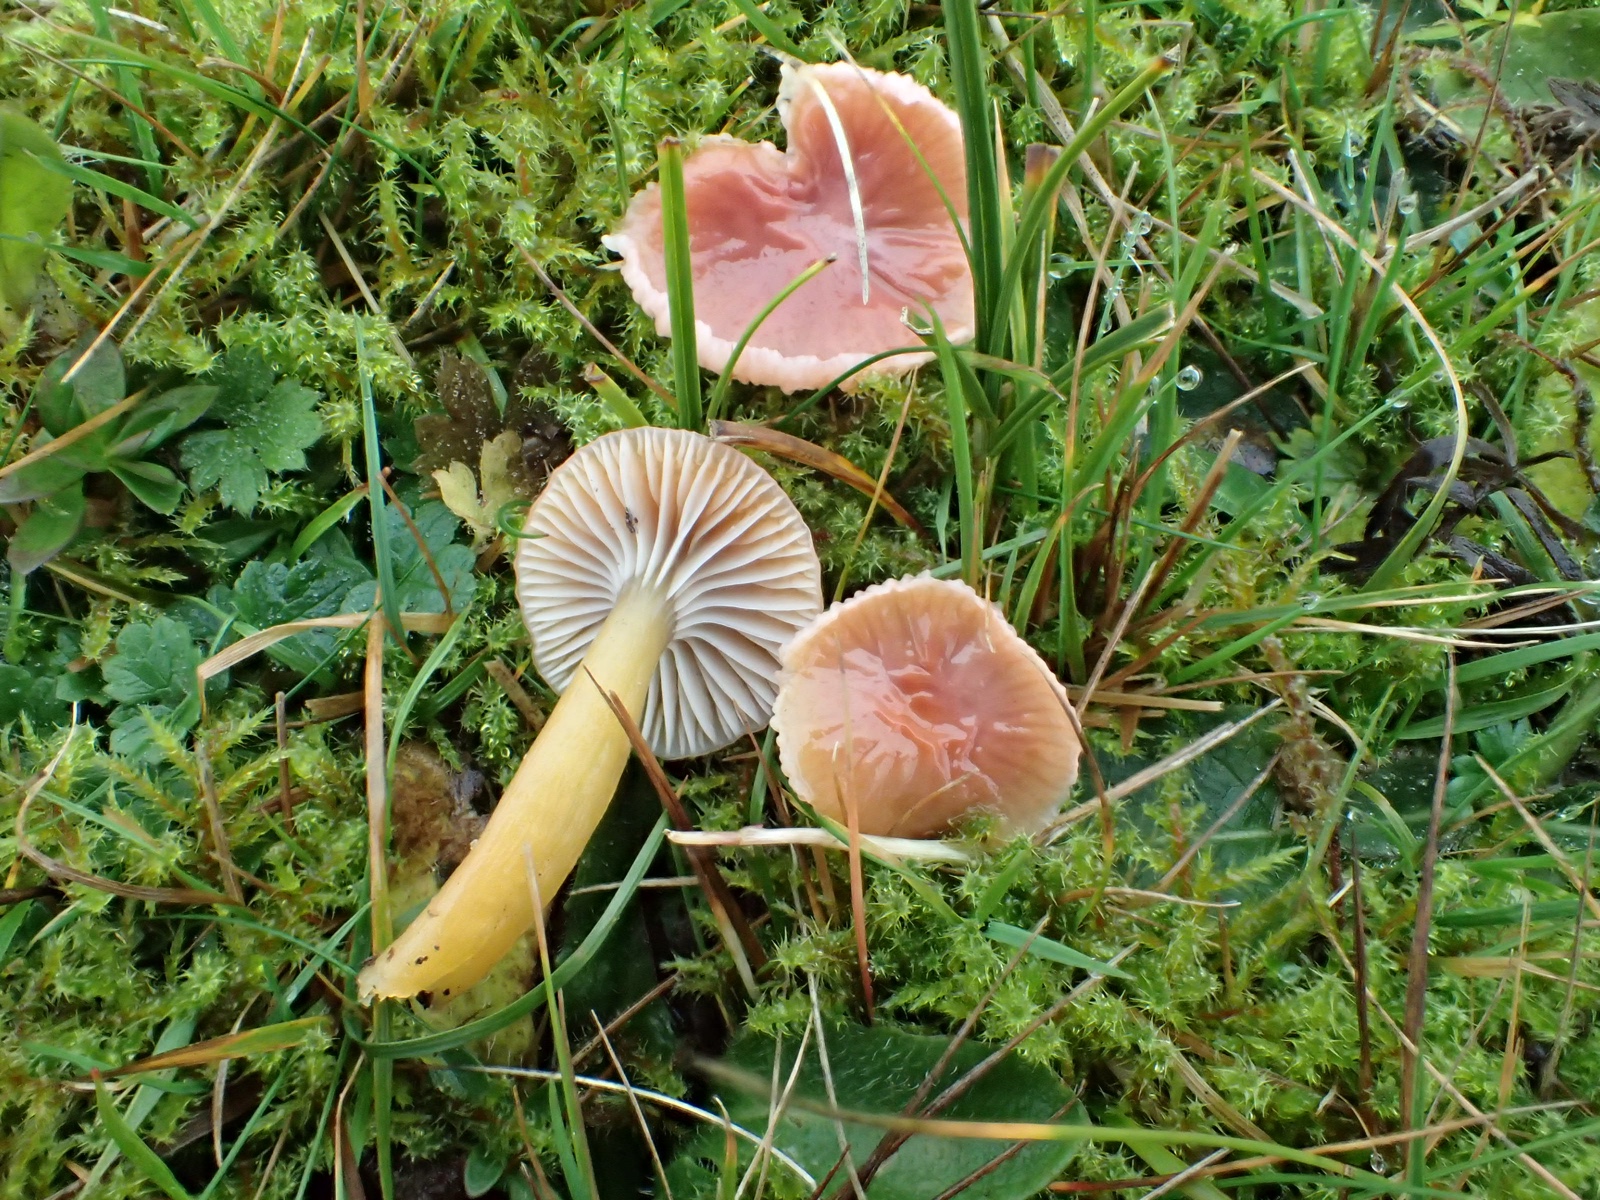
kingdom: Fungi
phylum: Basidiomycota
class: Agaricomycetes
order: Agaricales
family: Hygrophoraceae
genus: Gliophorus
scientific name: Gliophorus laetus
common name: brusk-vokshat
